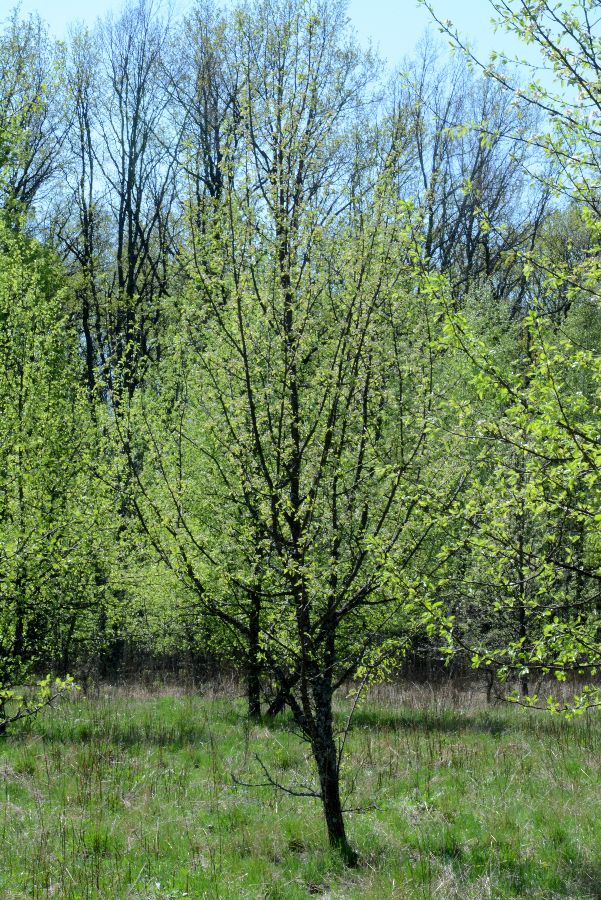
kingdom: Plantae
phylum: Tracheophyta
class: Magnoliopsida
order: Rosales
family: Rosaceae
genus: Pyrus
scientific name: Pyrus communis
